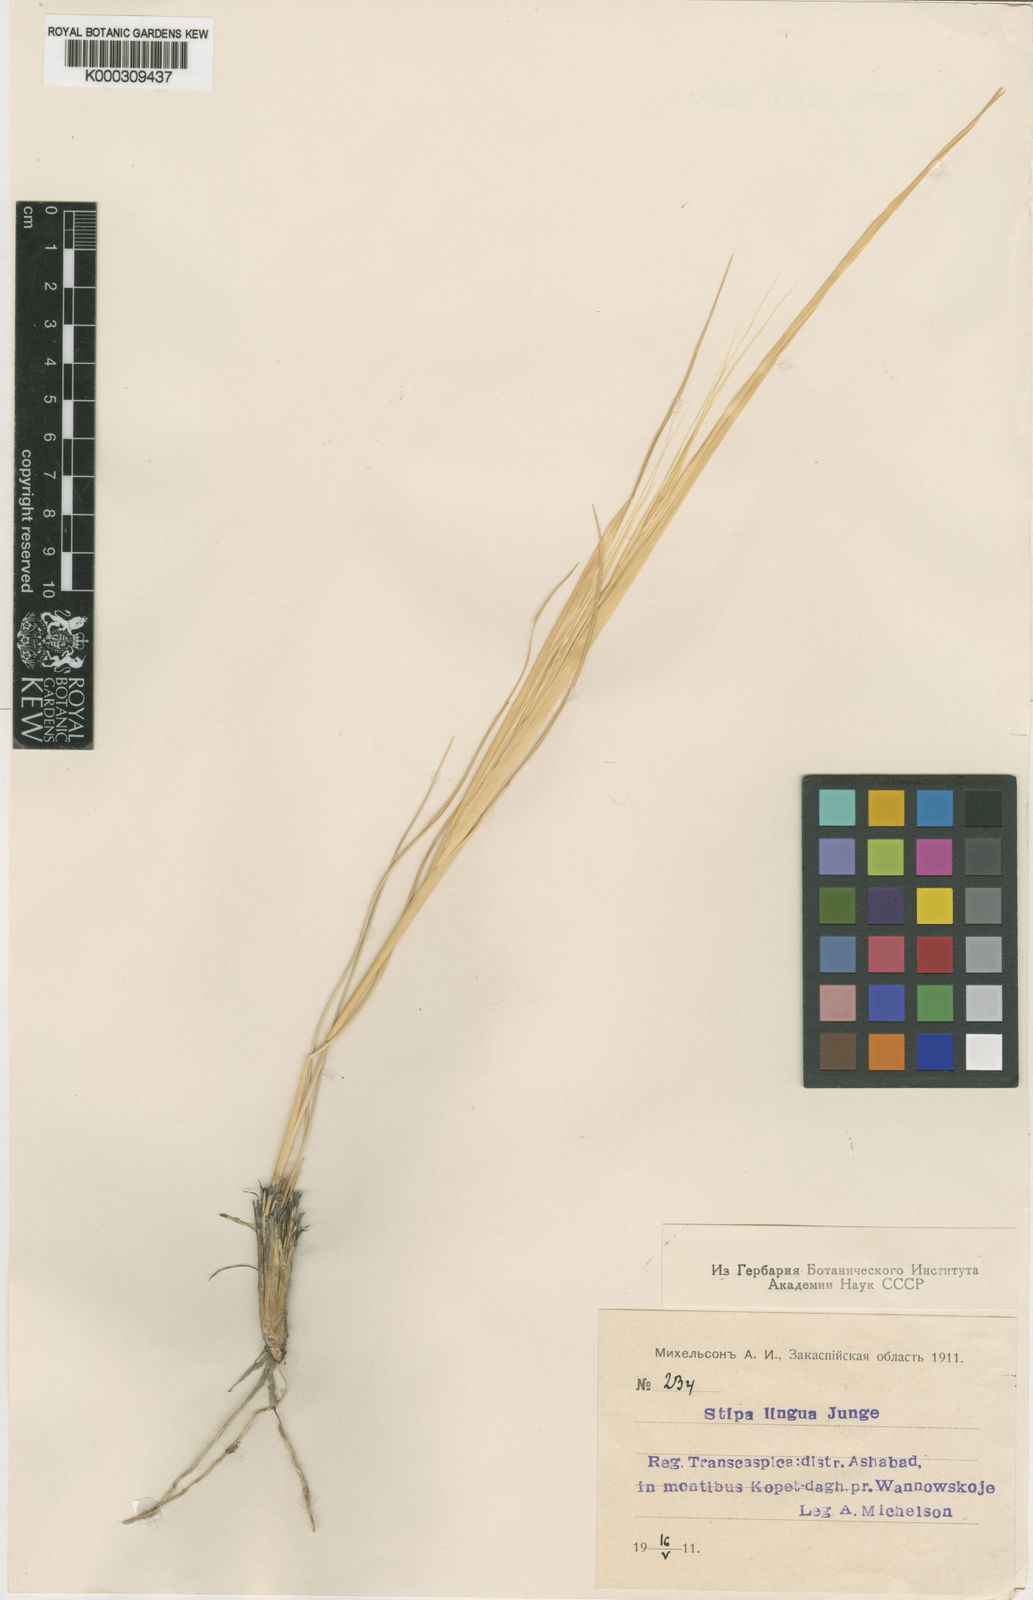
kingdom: Plantae
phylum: Tracheophyta
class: Liliopsida
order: Poales
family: Poaceae
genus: Stipa
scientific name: Stipa lingua
